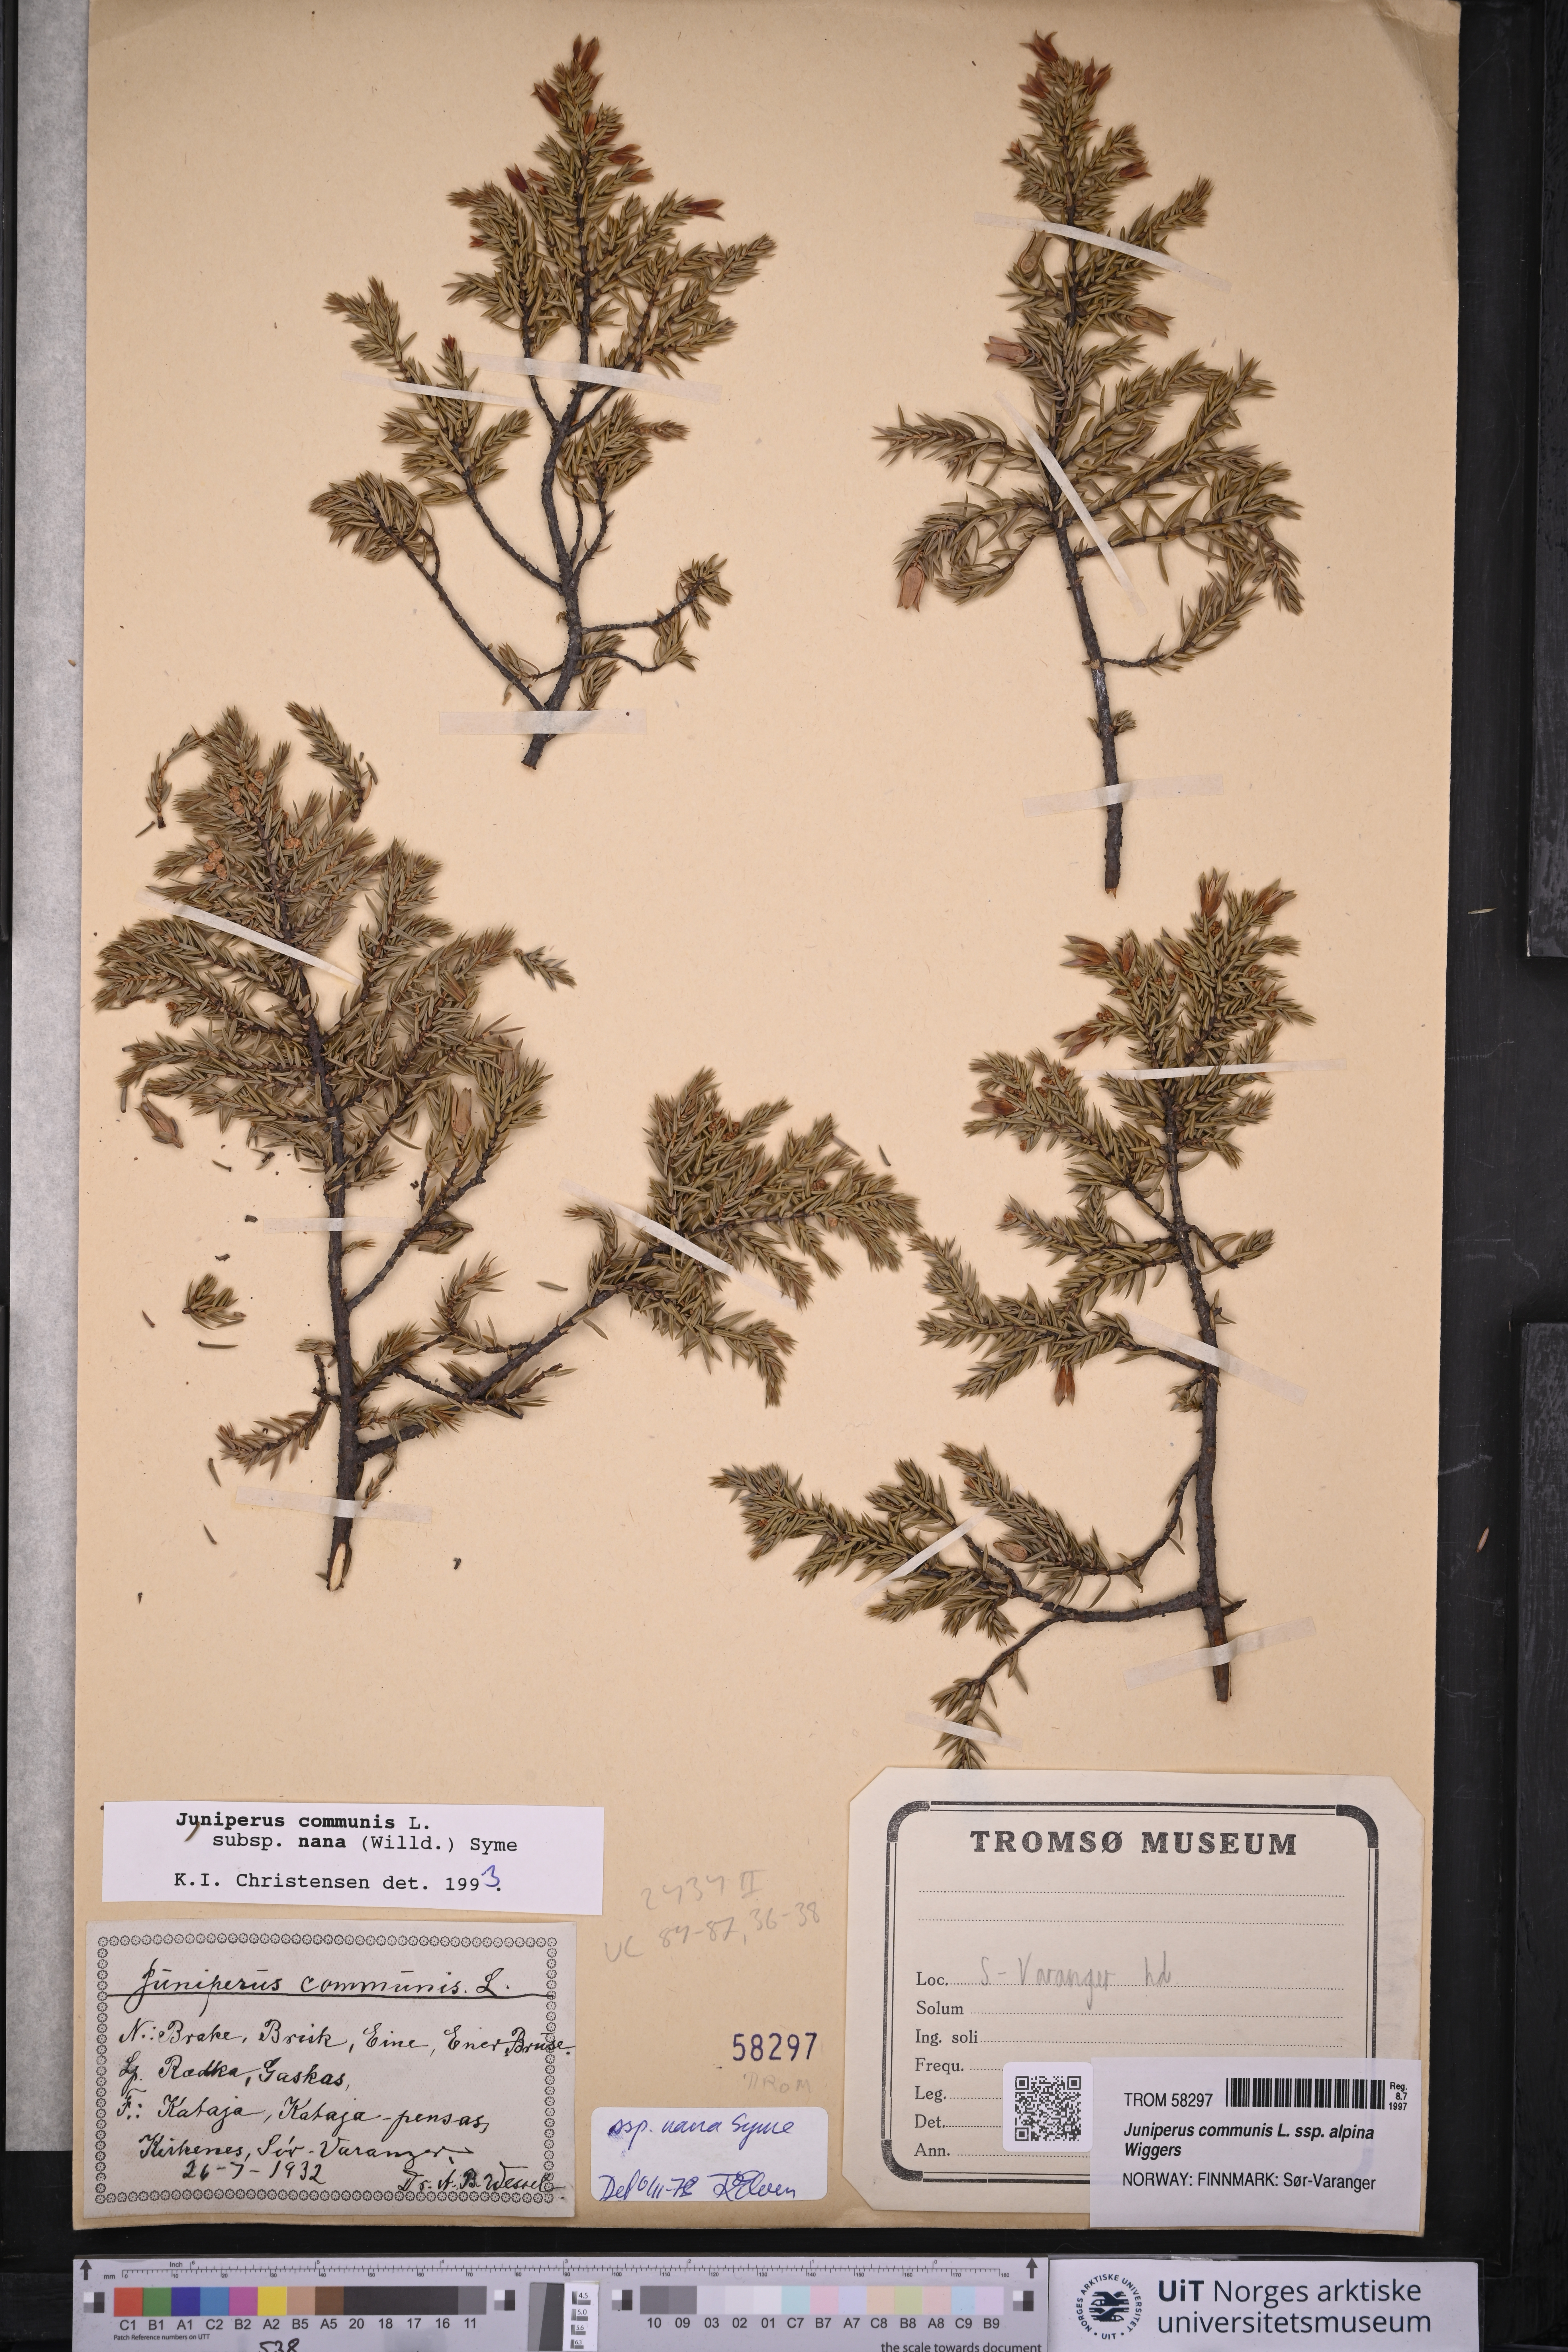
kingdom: Plantae
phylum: Tracheophyta
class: Pinopsida
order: Pinales
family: Cupressaceae
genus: Juniperus
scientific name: Juniperus communis
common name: Common juniper
